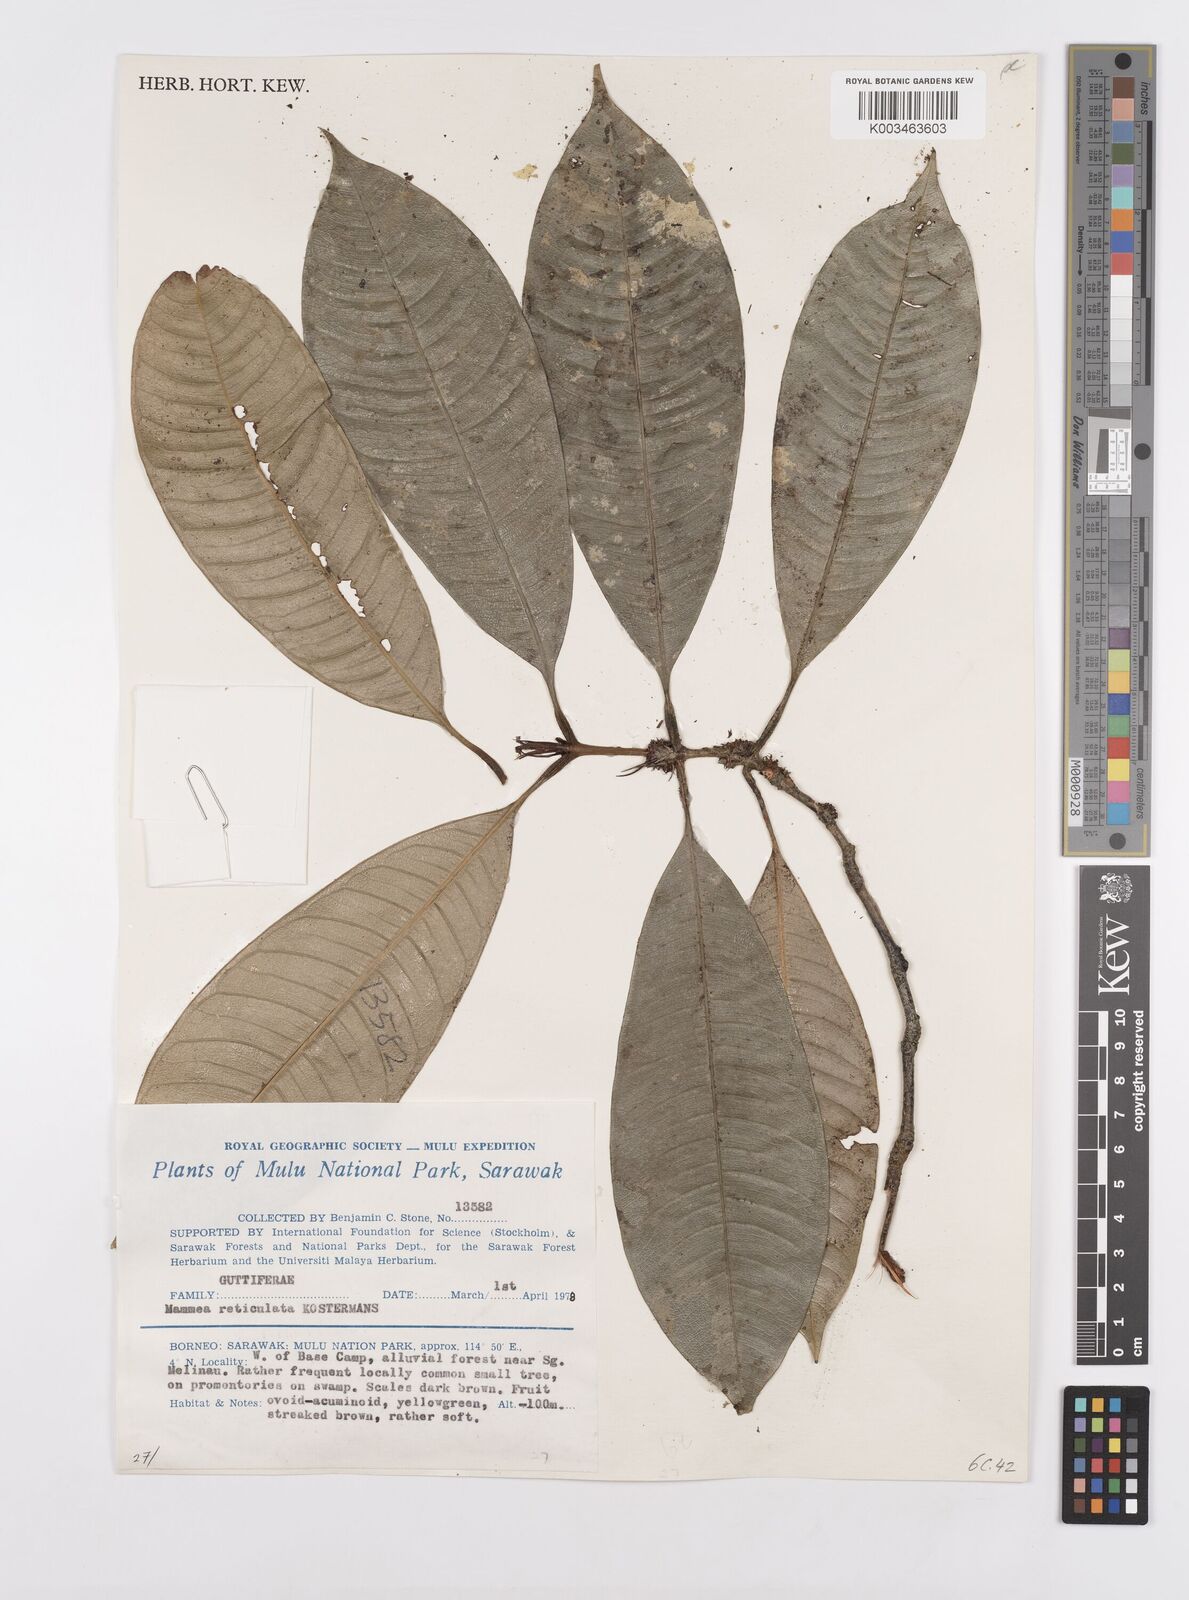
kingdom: Plantae
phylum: Tracheophyta
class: Magnoliopsida
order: Malpighiales
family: Calophyllaceae
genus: Mammea
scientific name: Mammea calciphila
